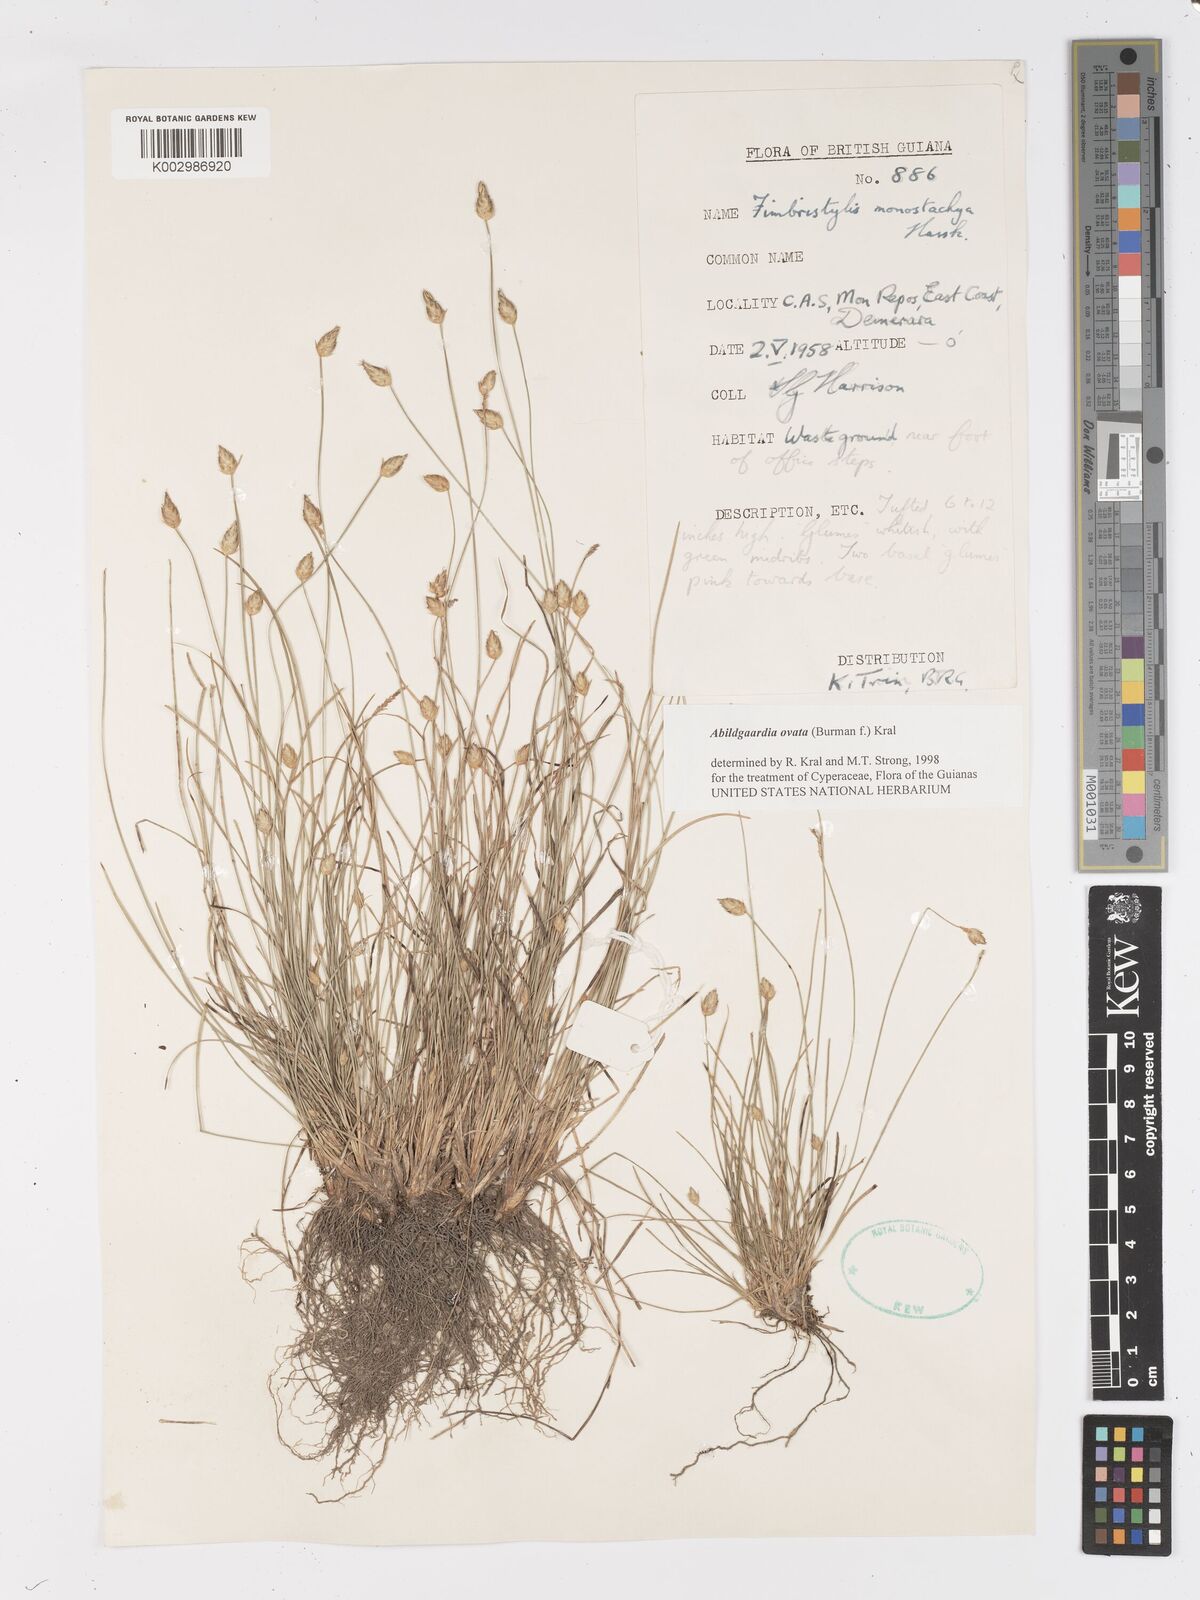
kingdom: Plantae
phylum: Tracheophyta
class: Liliopsida
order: Poales
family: Cyperaceae
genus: Abildgaardia
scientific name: Abildgaardia ovata
